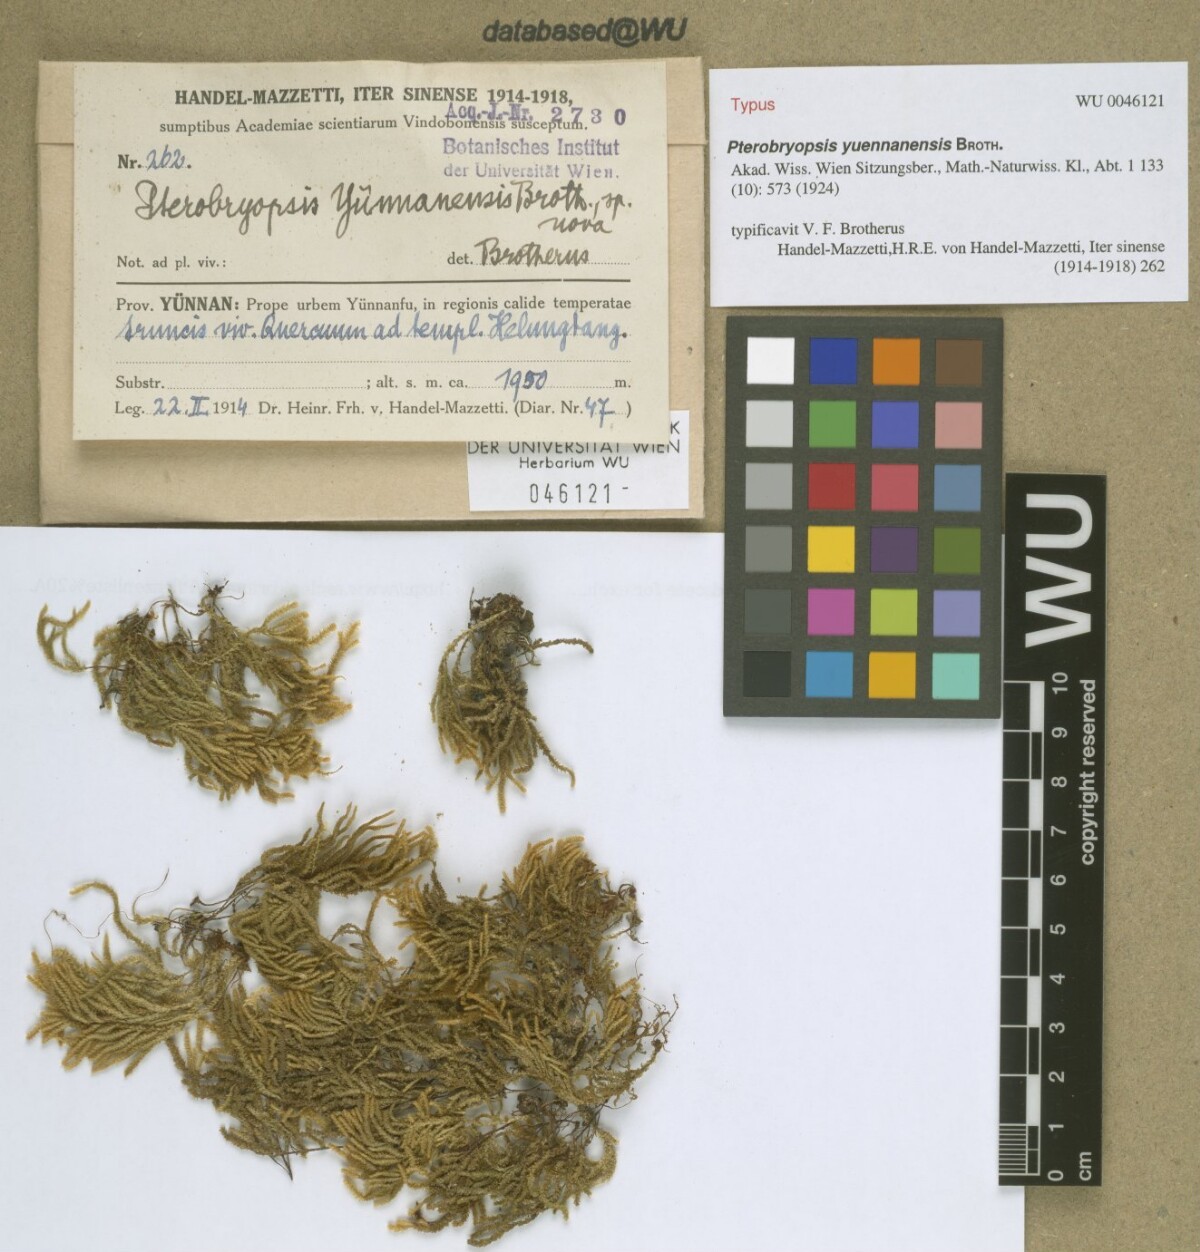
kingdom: Plantae
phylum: Bryophyta
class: Bryopsida
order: Hypnales
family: Pterobryaceae
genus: Pterobryopsis
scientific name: Pterobryopsis orientalis
